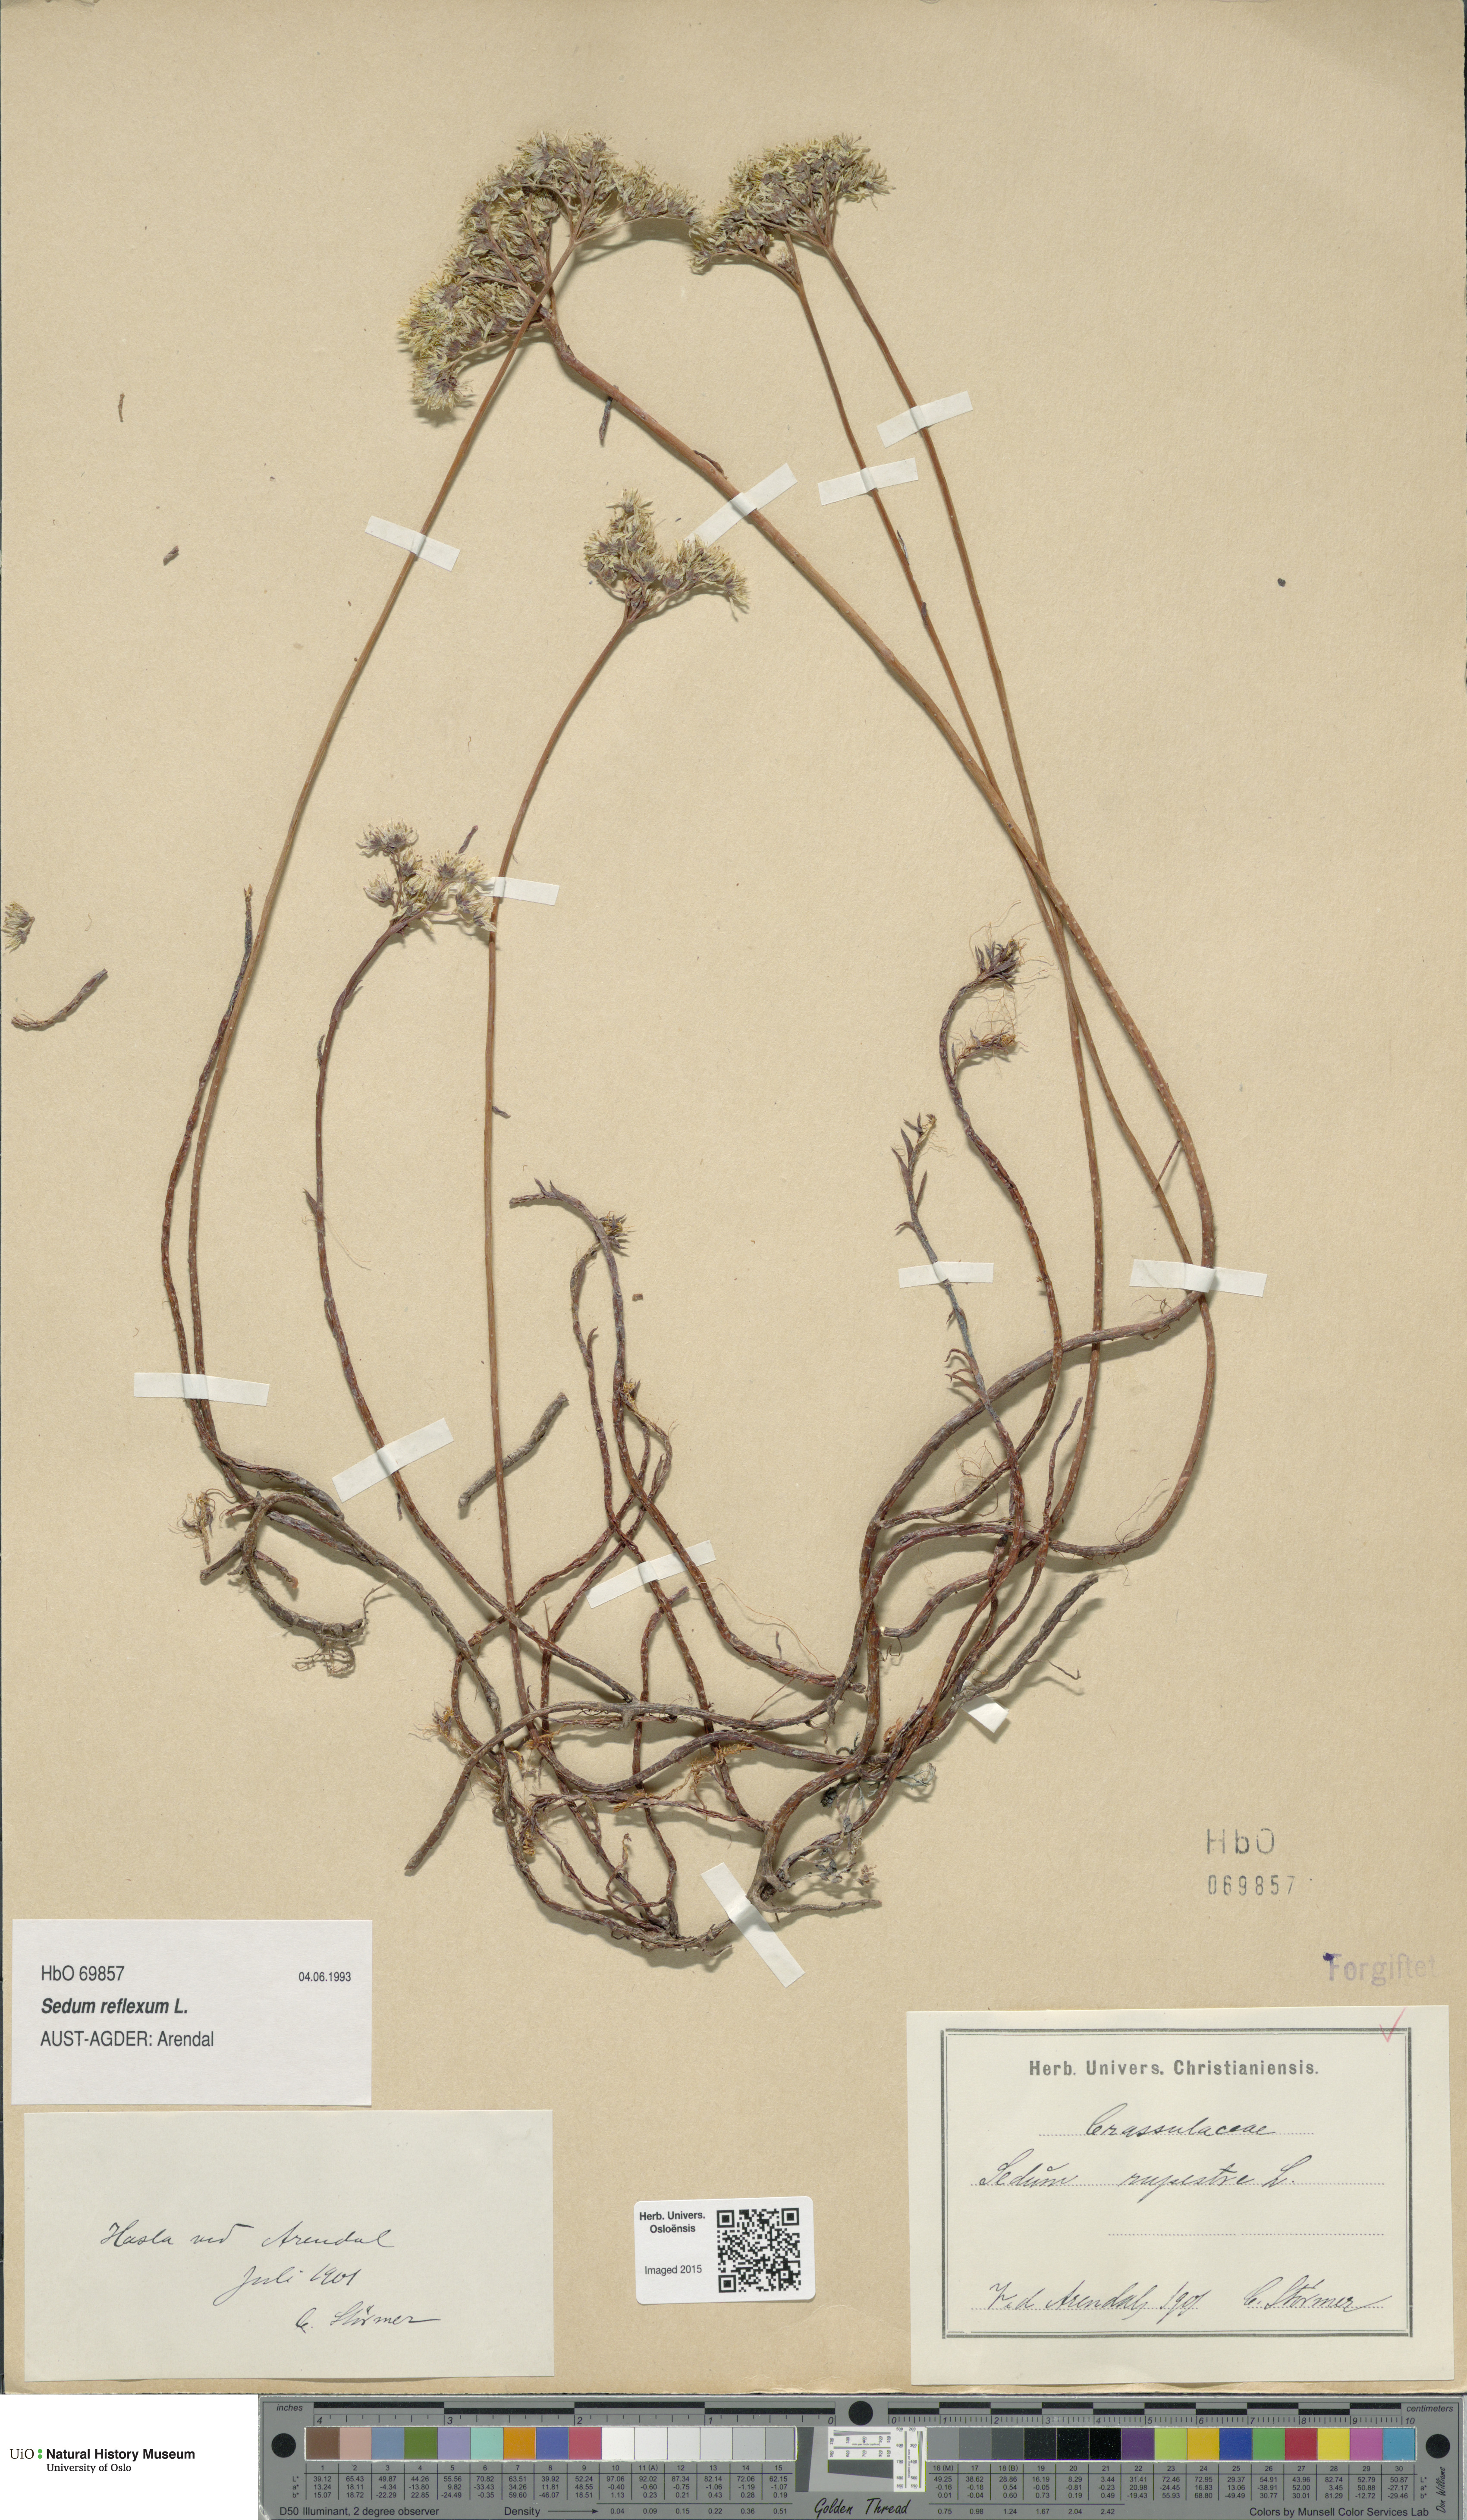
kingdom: Plantae
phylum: Tracheophyta
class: Magnoliopsida
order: Saxifragales
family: Crassulaceae
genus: Petrosedum
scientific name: Petrosedum rupestre
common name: Jenny's stonecrop
